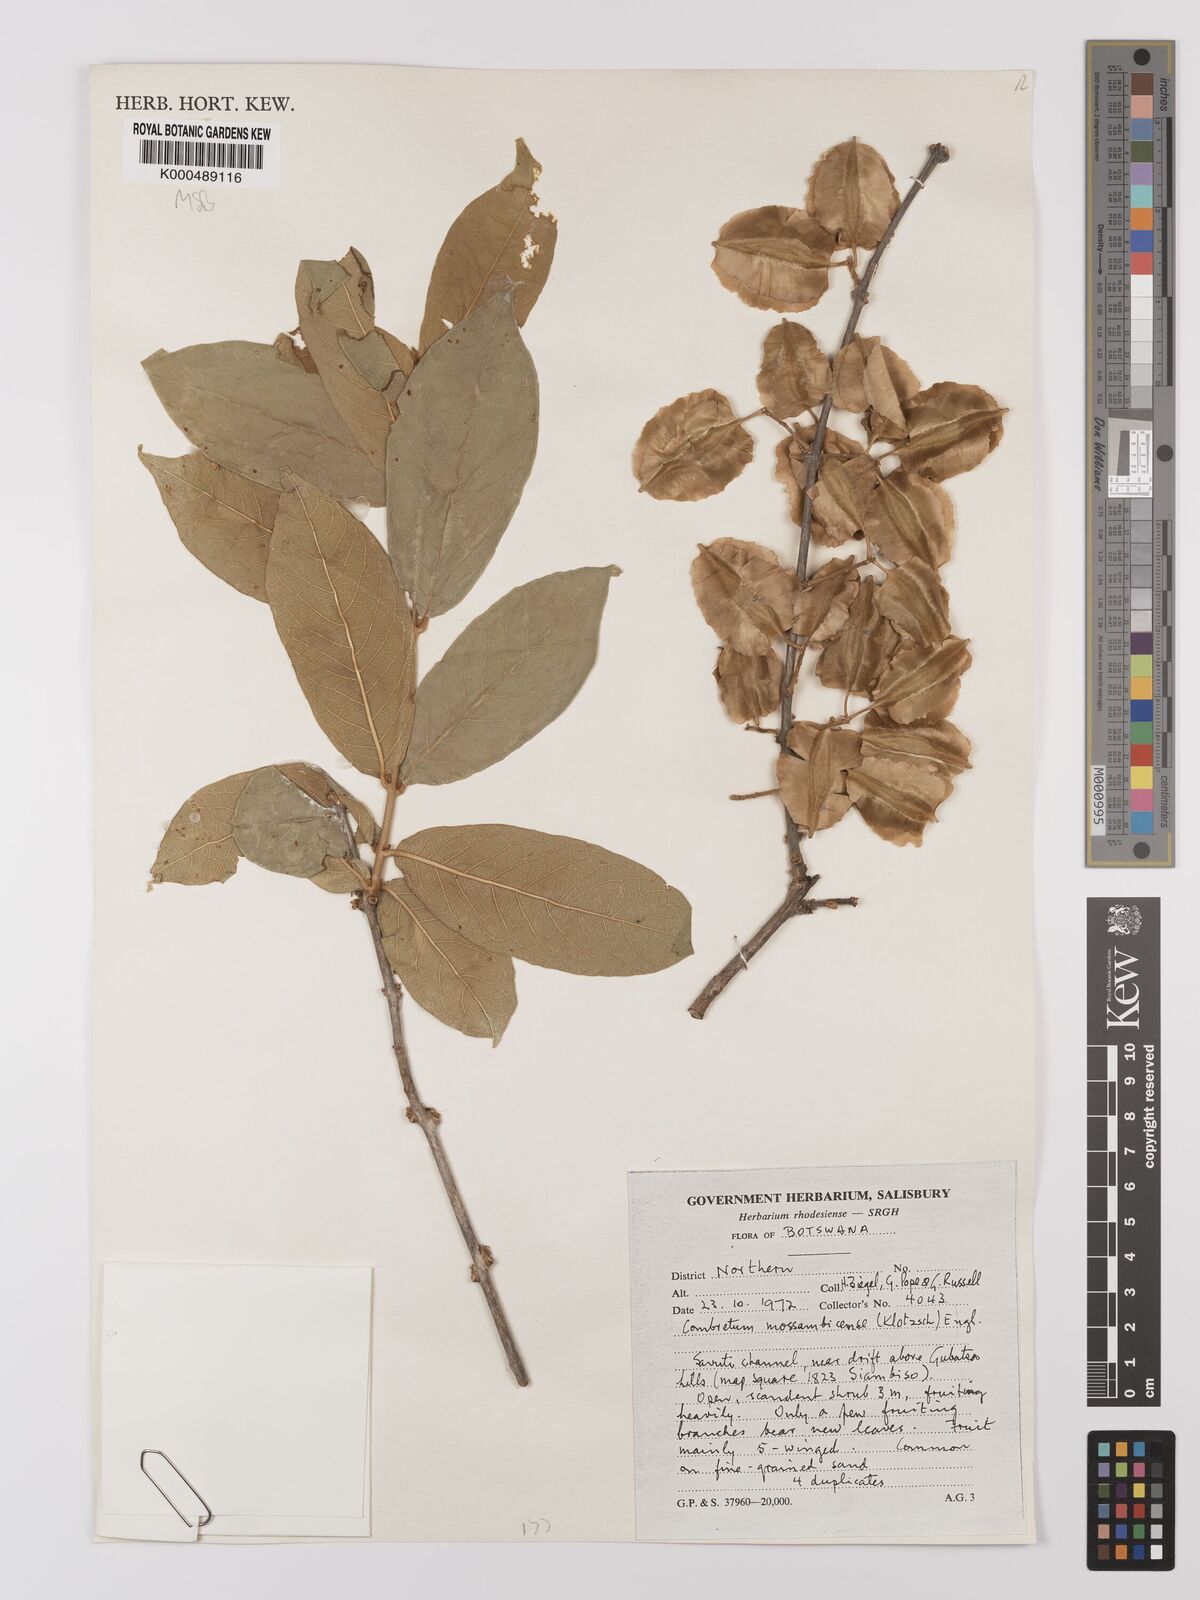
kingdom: Plantae
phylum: Tracheophyta
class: Magnoliopsida
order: Myrtales
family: Combretaceae
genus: Combretum
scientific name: Combretum mossambicense
